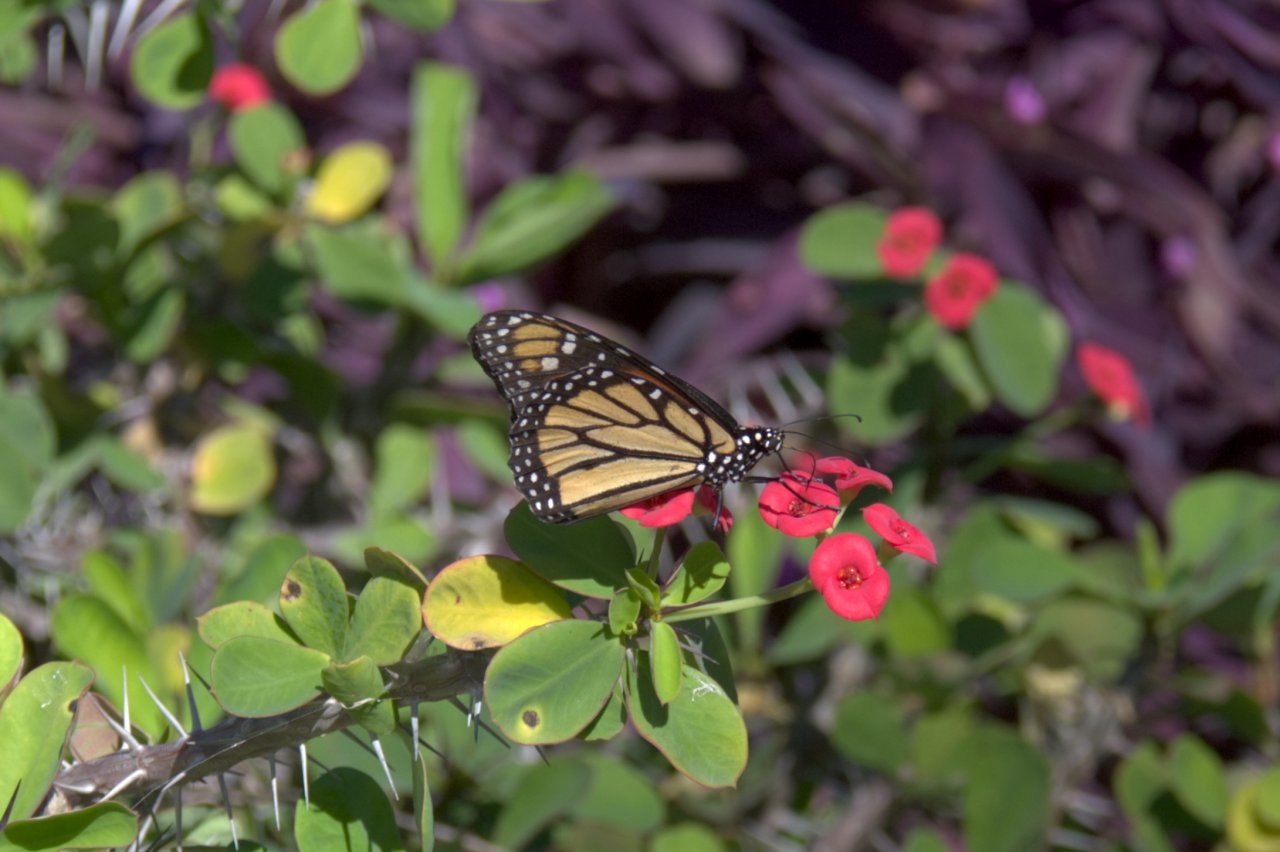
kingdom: Animalia
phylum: Arthropoda
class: Insecta
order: Lepidoptera
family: Nymphalidae
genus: Danaus
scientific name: Danaus plexippus
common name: Monarch
